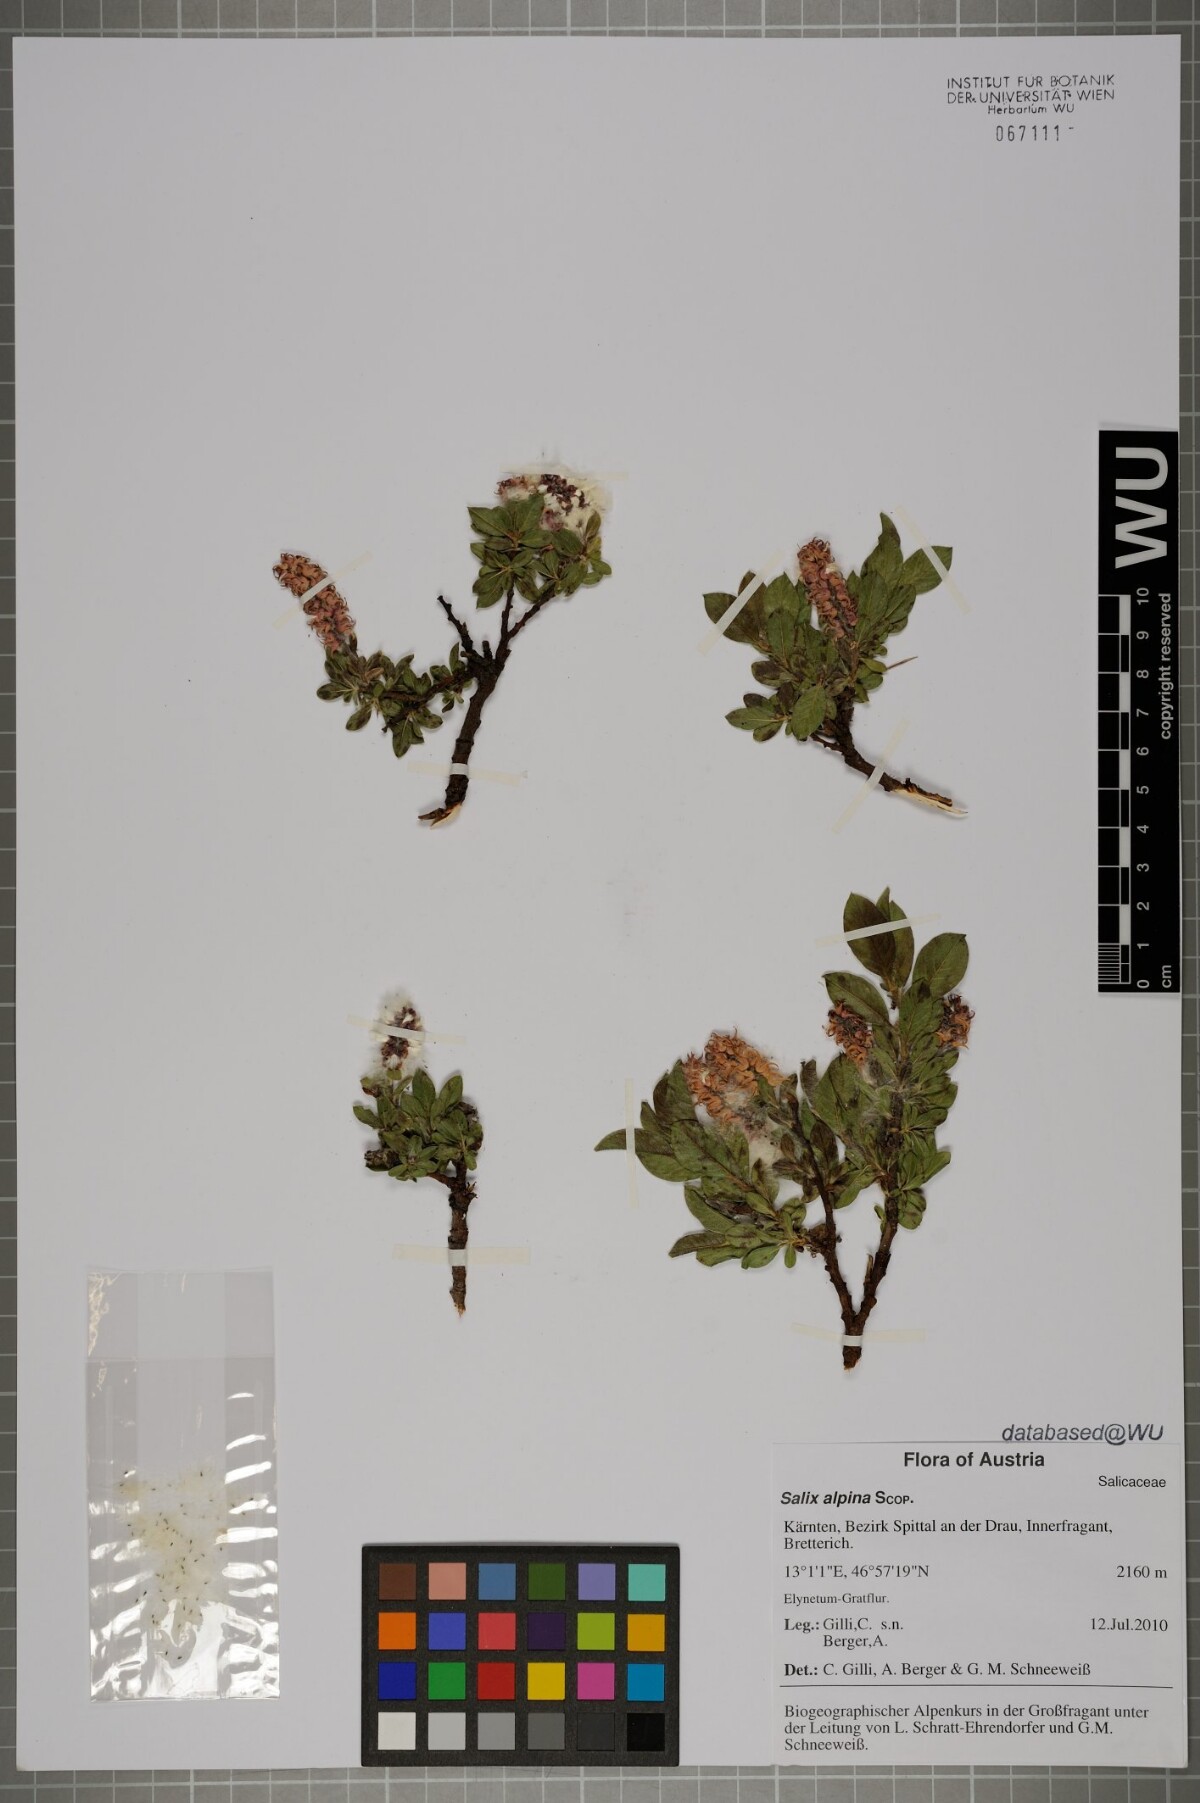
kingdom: Plantae
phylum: Tracheophyta
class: Magnoliopsida
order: Malpighiales
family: Salicaceae
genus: Salix
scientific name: Salix alpina
